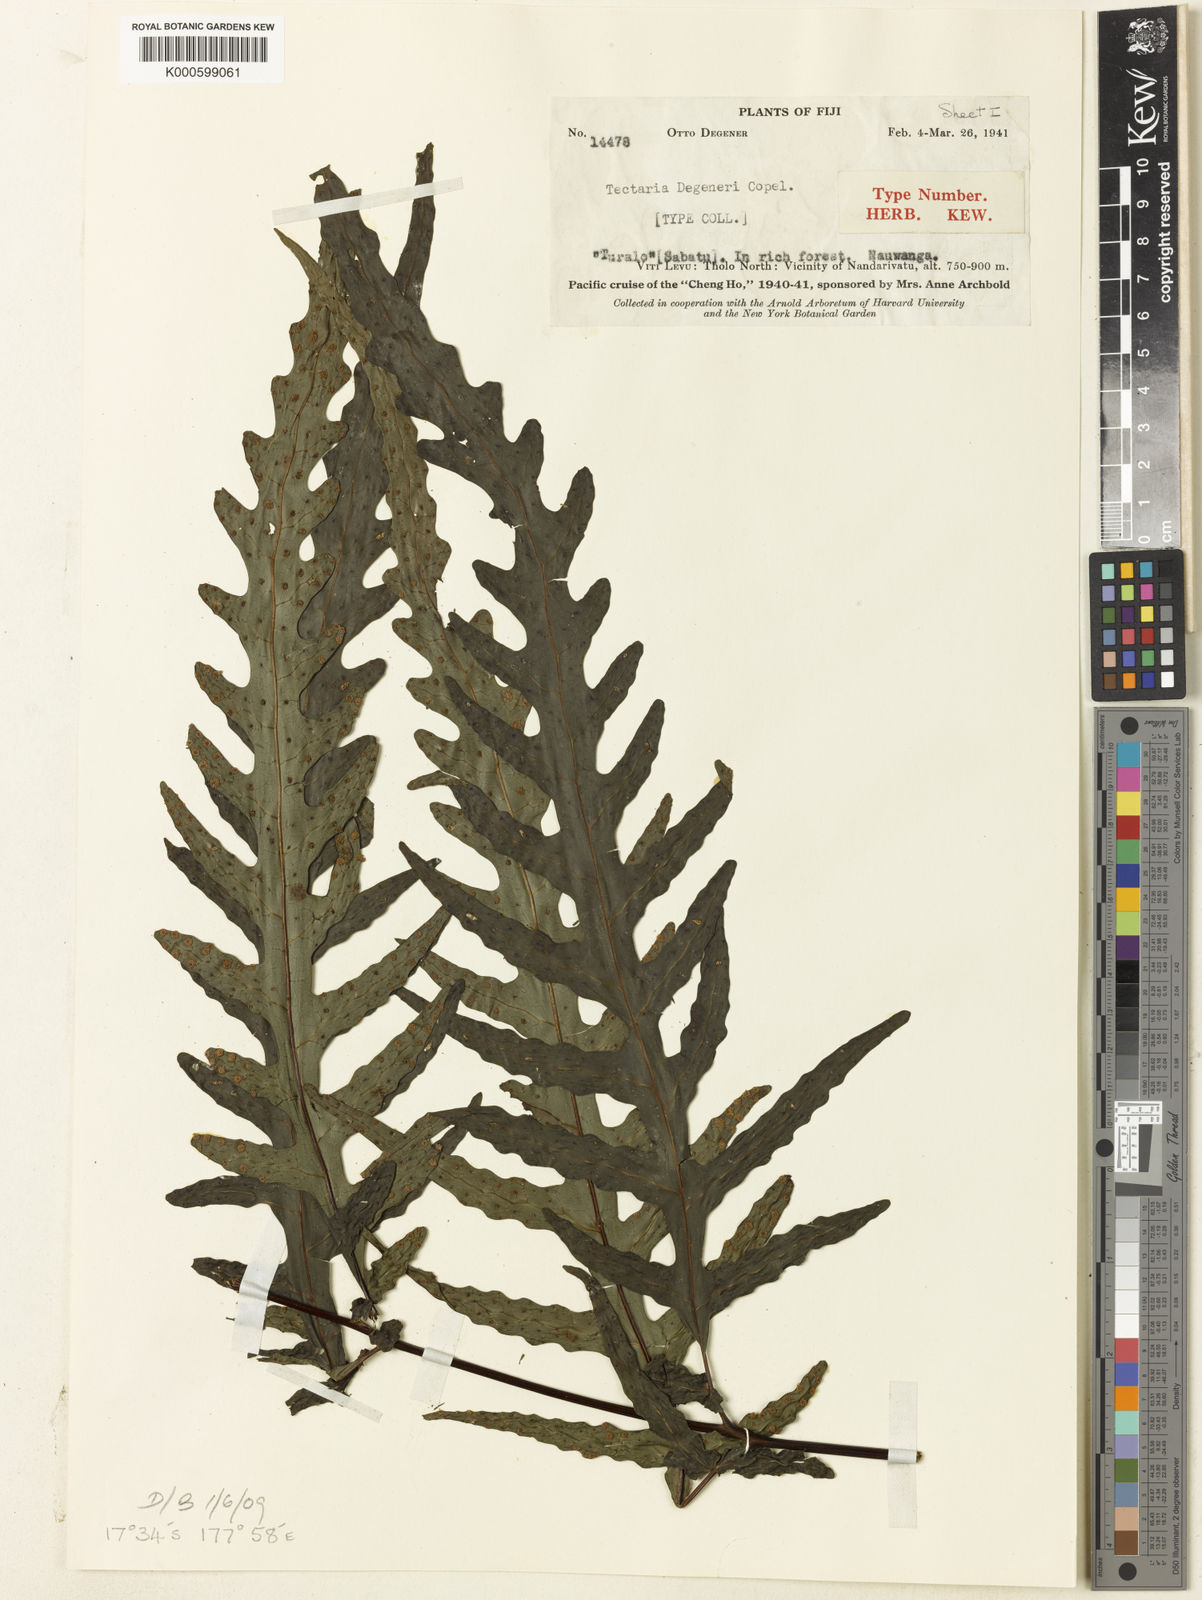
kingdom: Plantae
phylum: Tracheophyta
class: Polypodiopsida
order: Polypodiales
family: Tectariaceae
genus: Tectaria
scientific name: Tectaria degeneri
